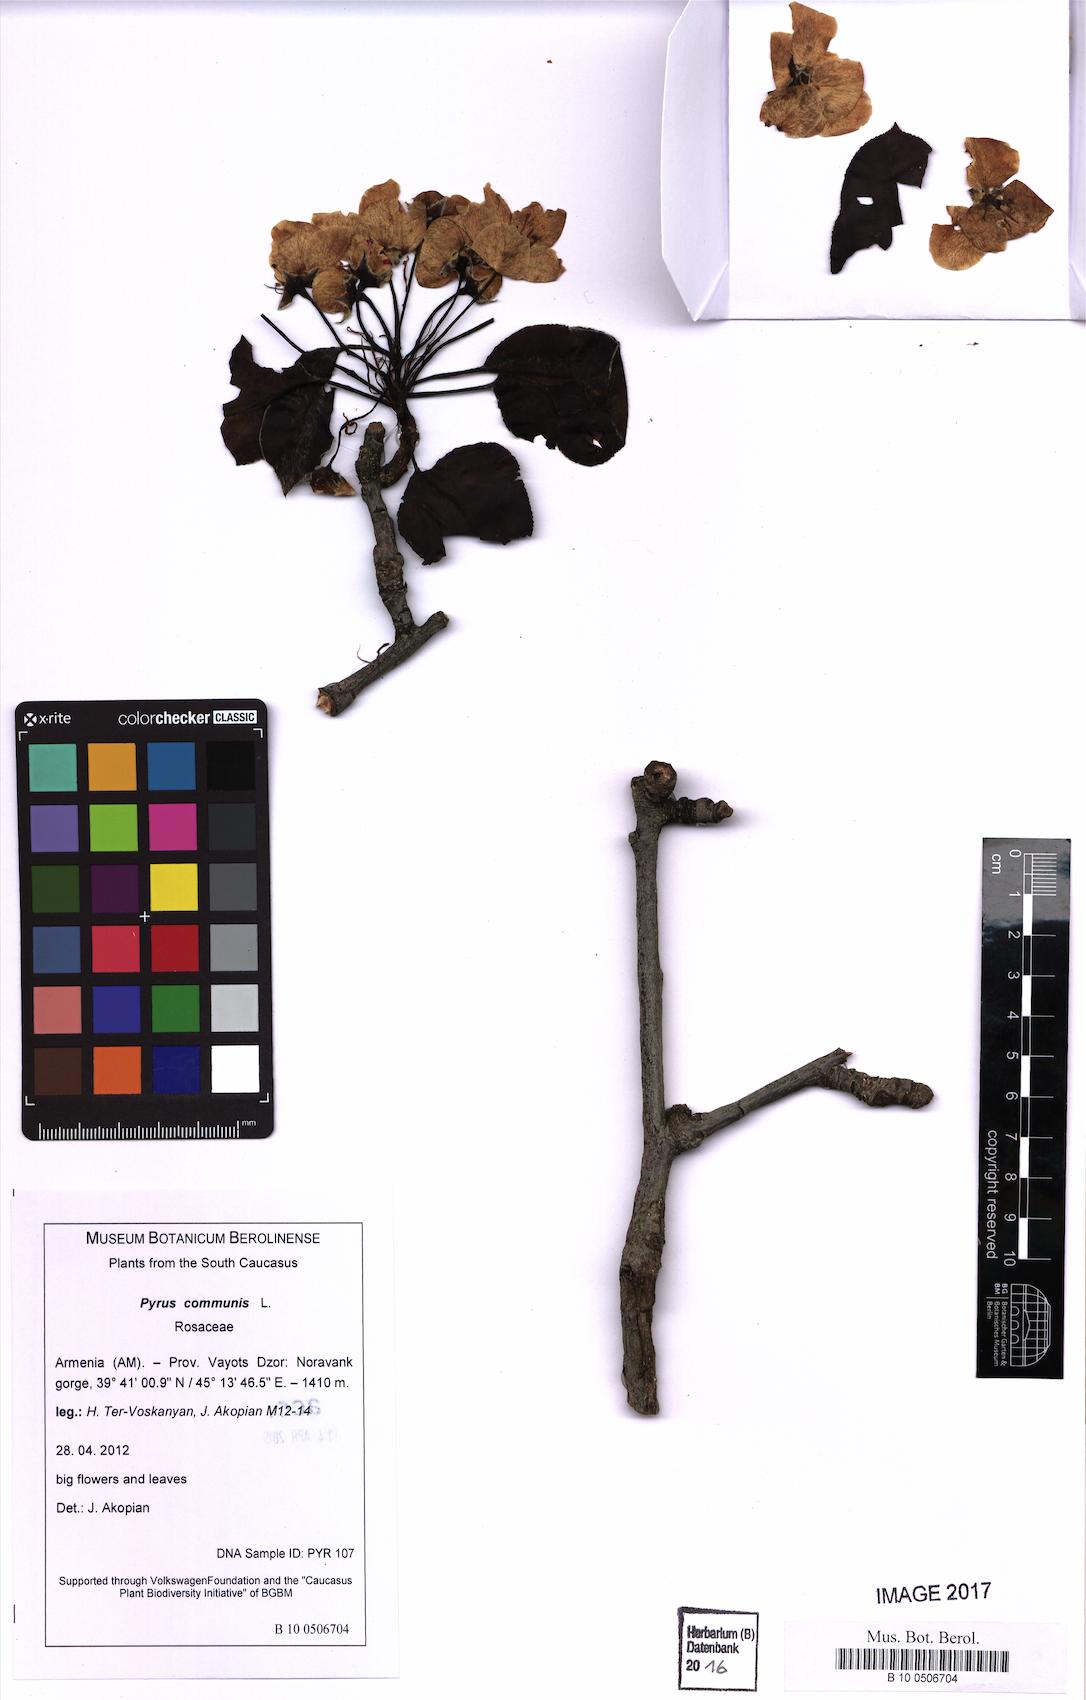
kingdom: Plantae
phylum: Tracheophyta
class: Magnoliopsida
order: Rosales
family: Rosaceae
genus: Pyrus
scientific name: Pyrus communis
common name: Pear
